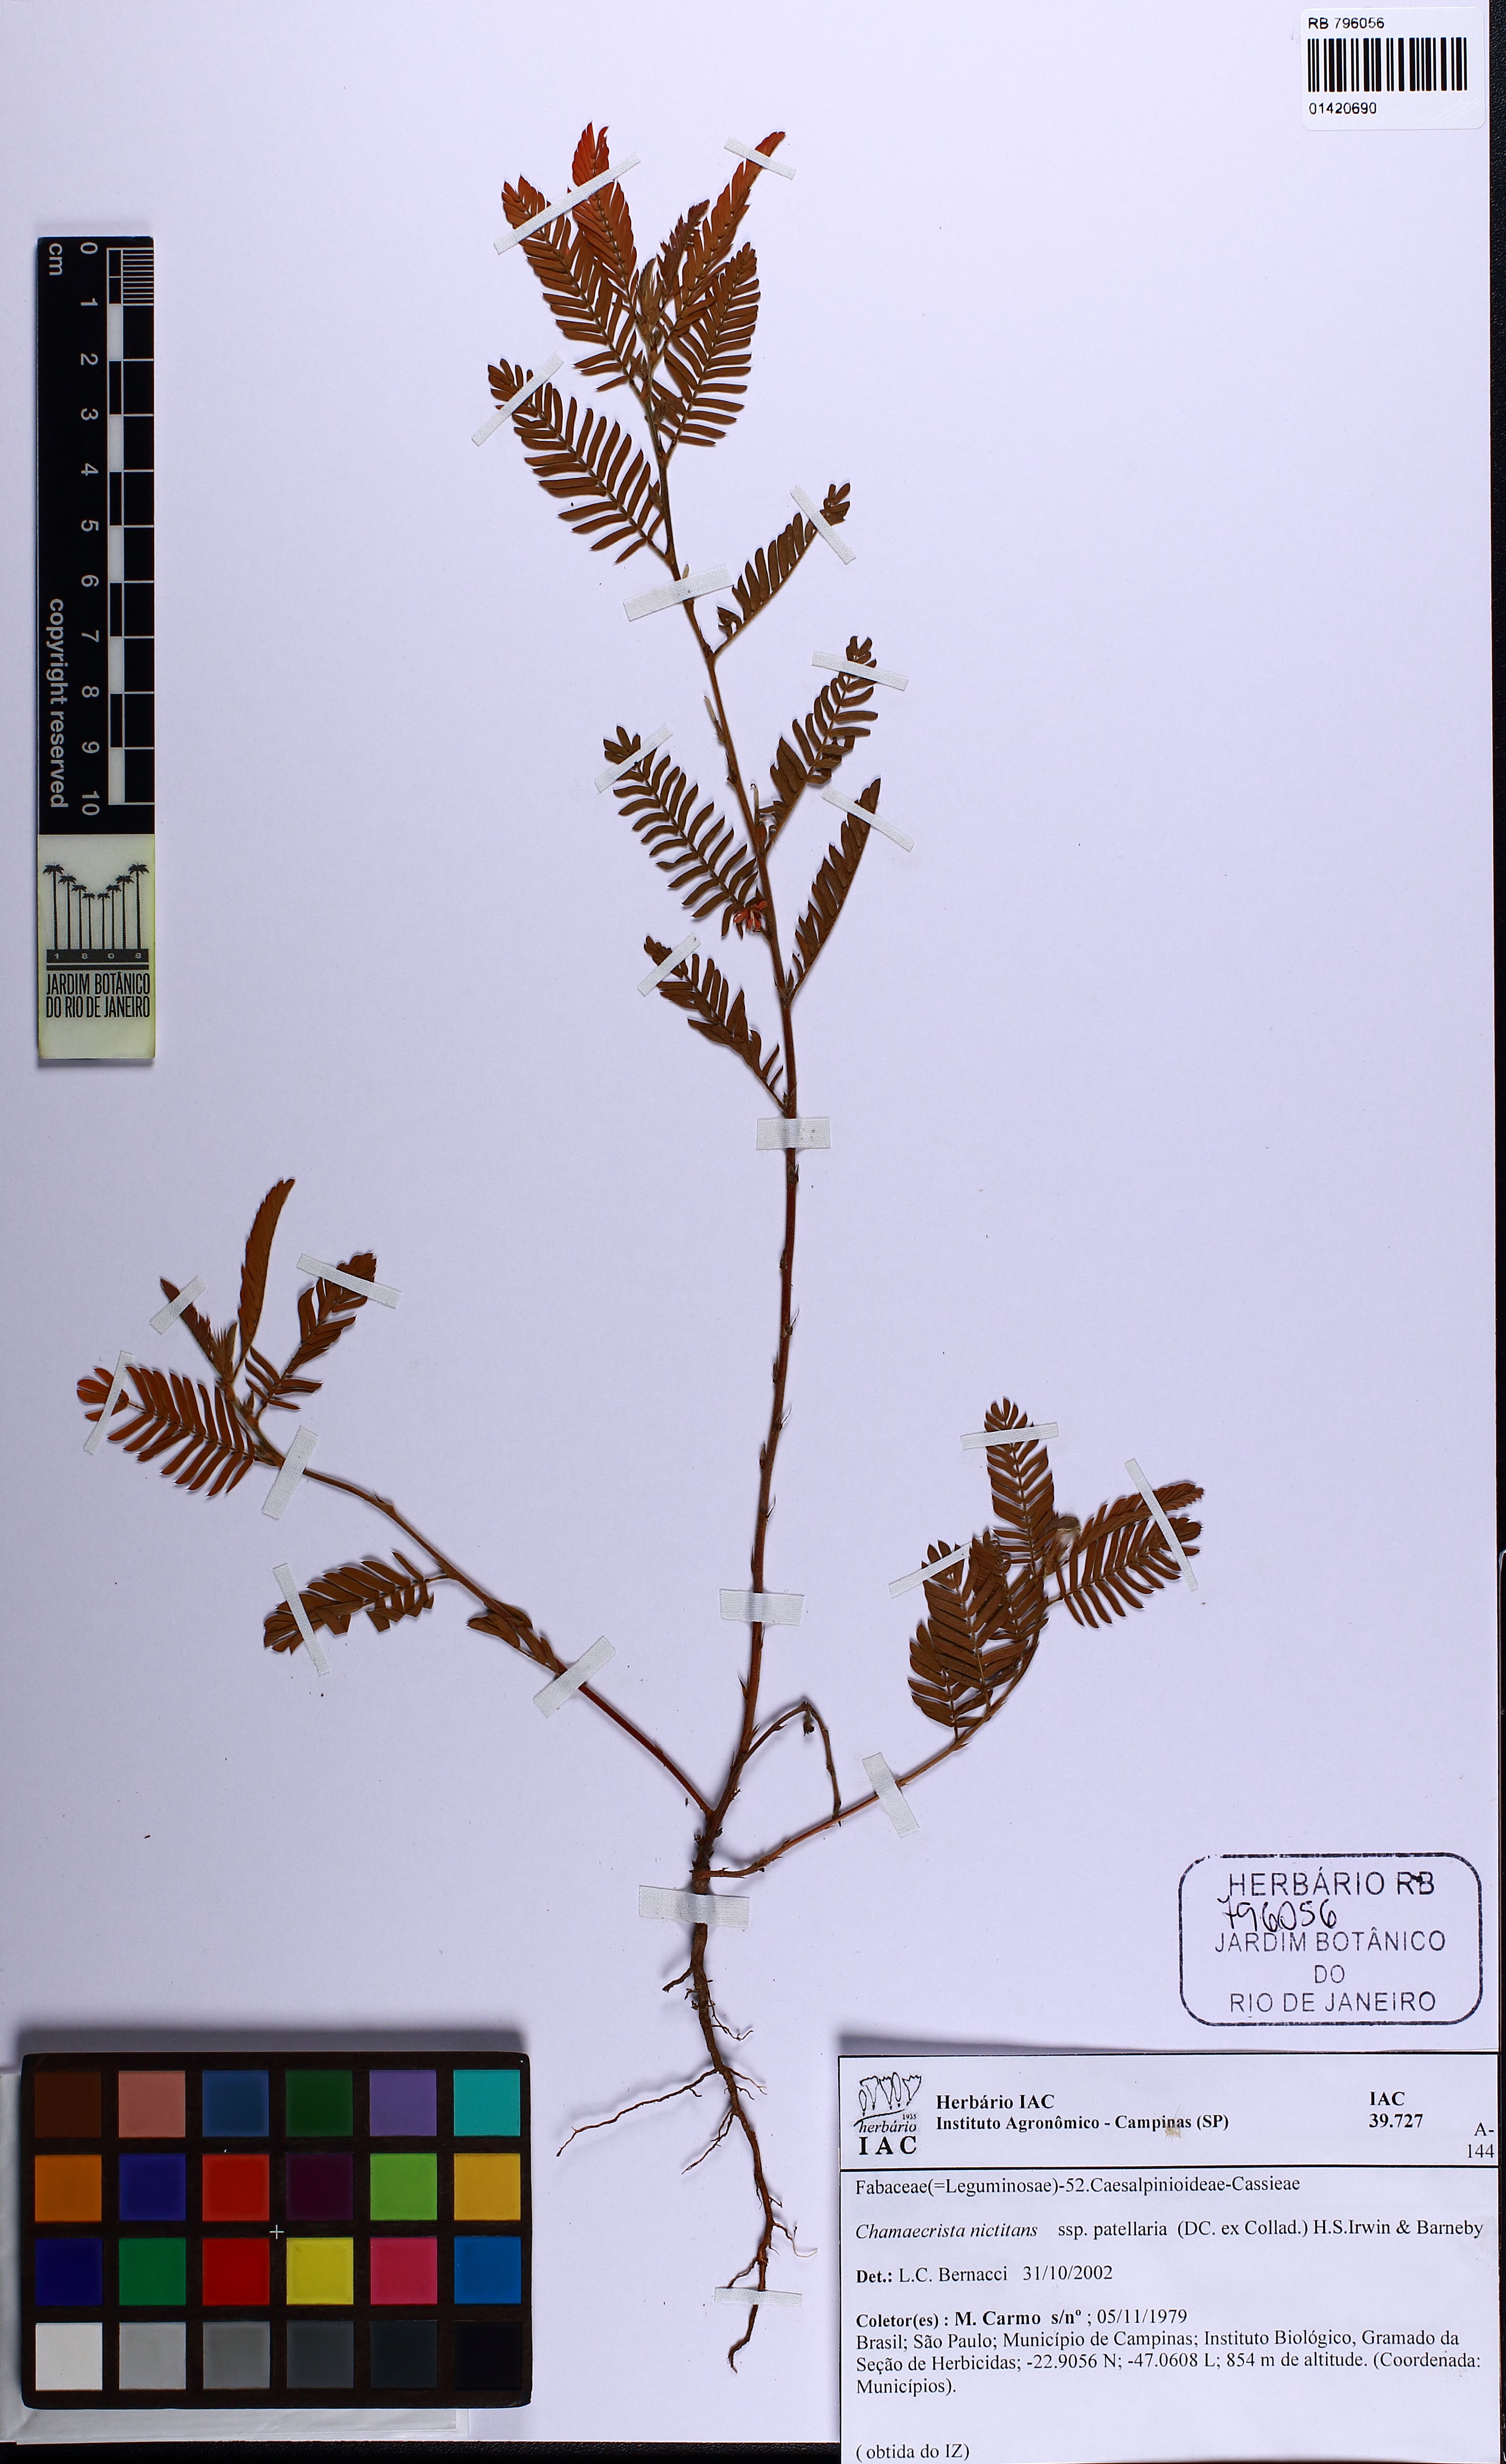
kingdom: Plantae
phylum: Tracheophyta
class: Magnoliopsida
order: Fabales
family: Fabaceae
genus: Chamaecrista
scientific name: Chamaecrista nictitans
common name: Sensitive cassia
